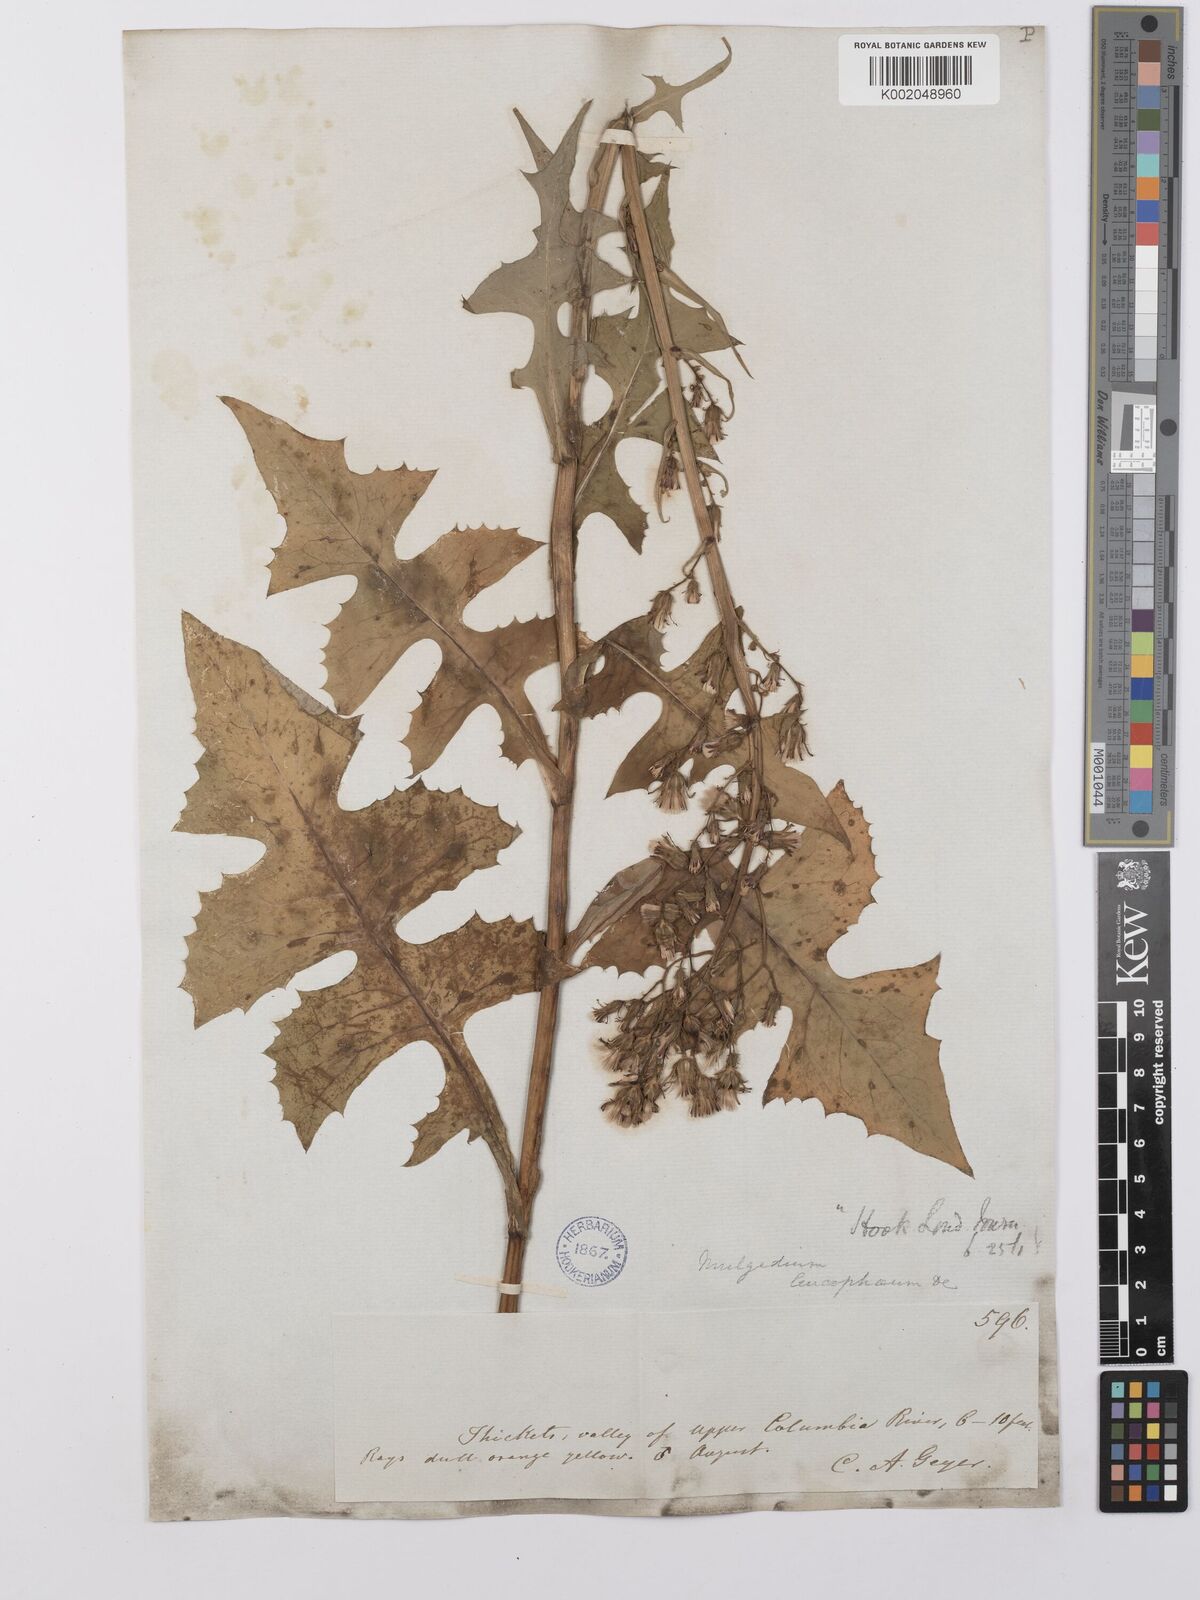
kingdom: Plantae
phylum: Tracheophyta
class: Magnoliopsida
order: Asterales
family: Asteraceae
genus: Lactuca
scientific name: Lactuca
